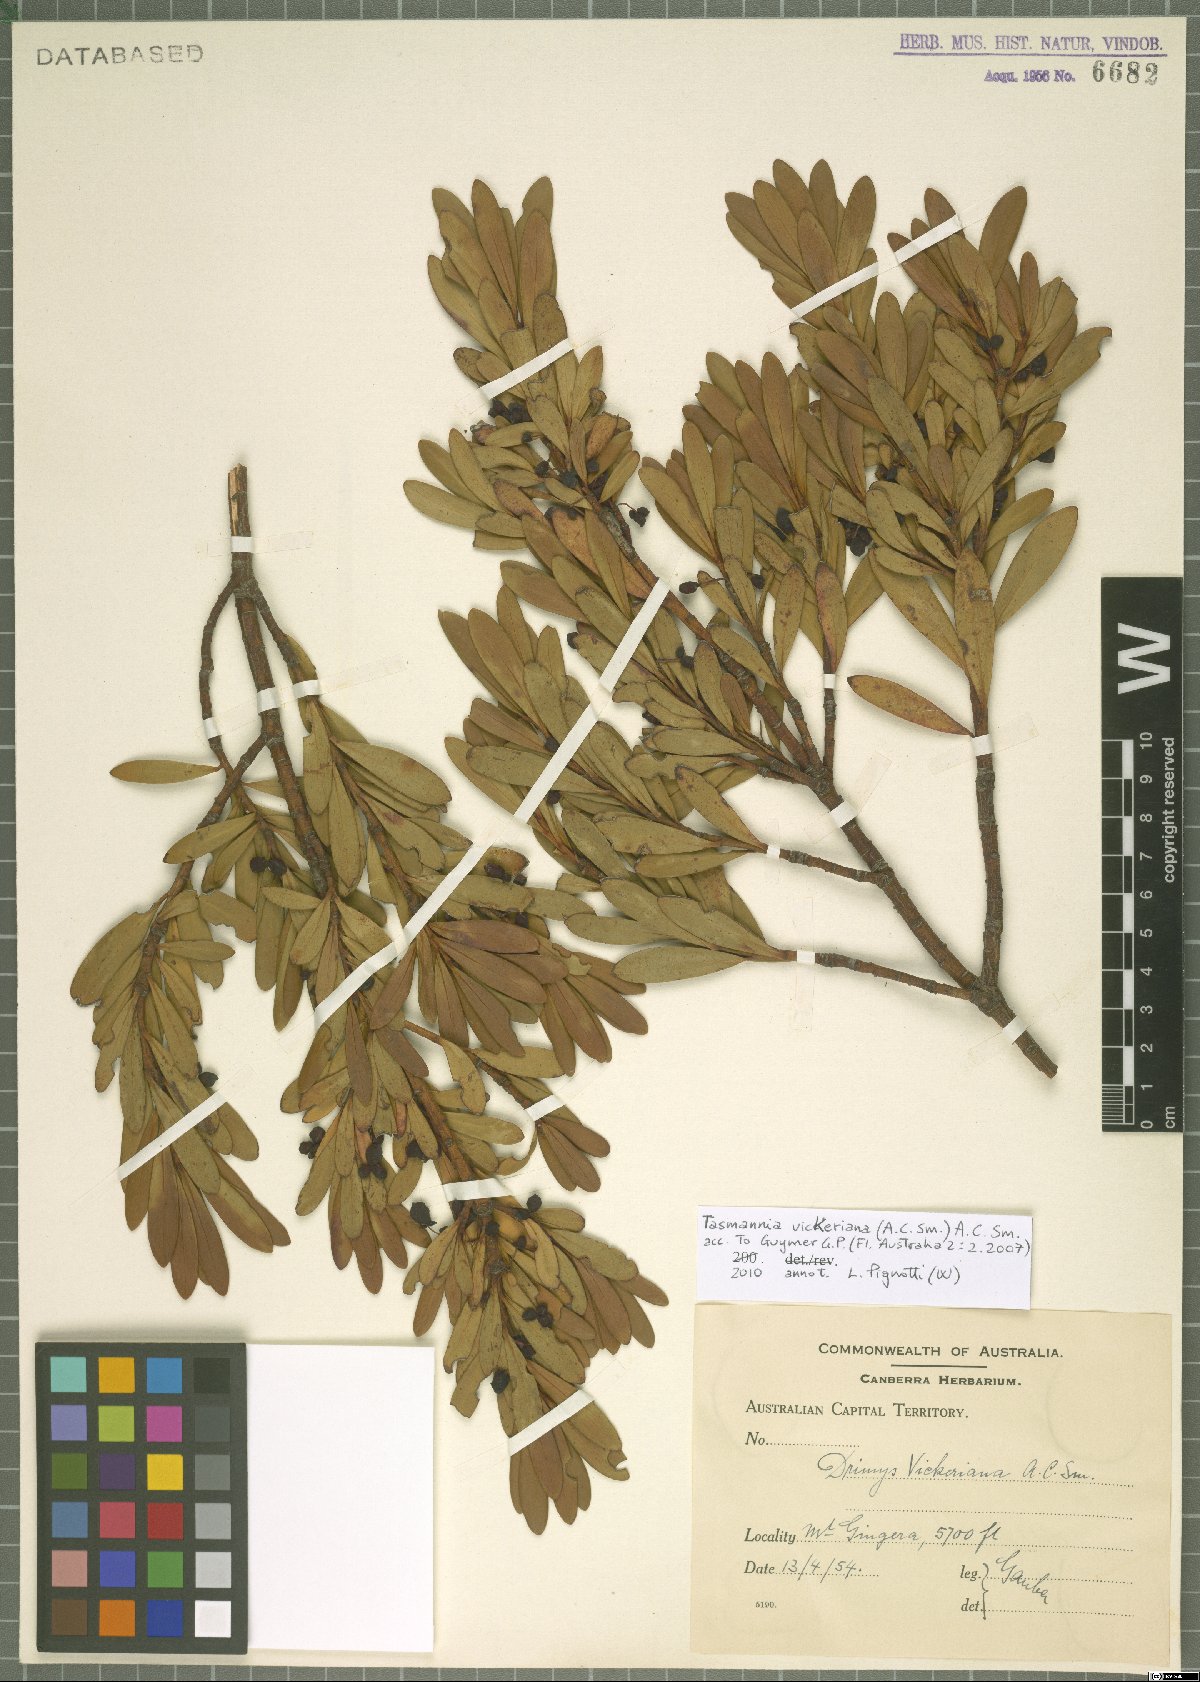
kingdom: Plantae
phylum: Tracheophyta
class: Magnoliopsida
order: Canellales
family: Winteraceae
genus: Drimys
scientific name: Drimys vickeriana
